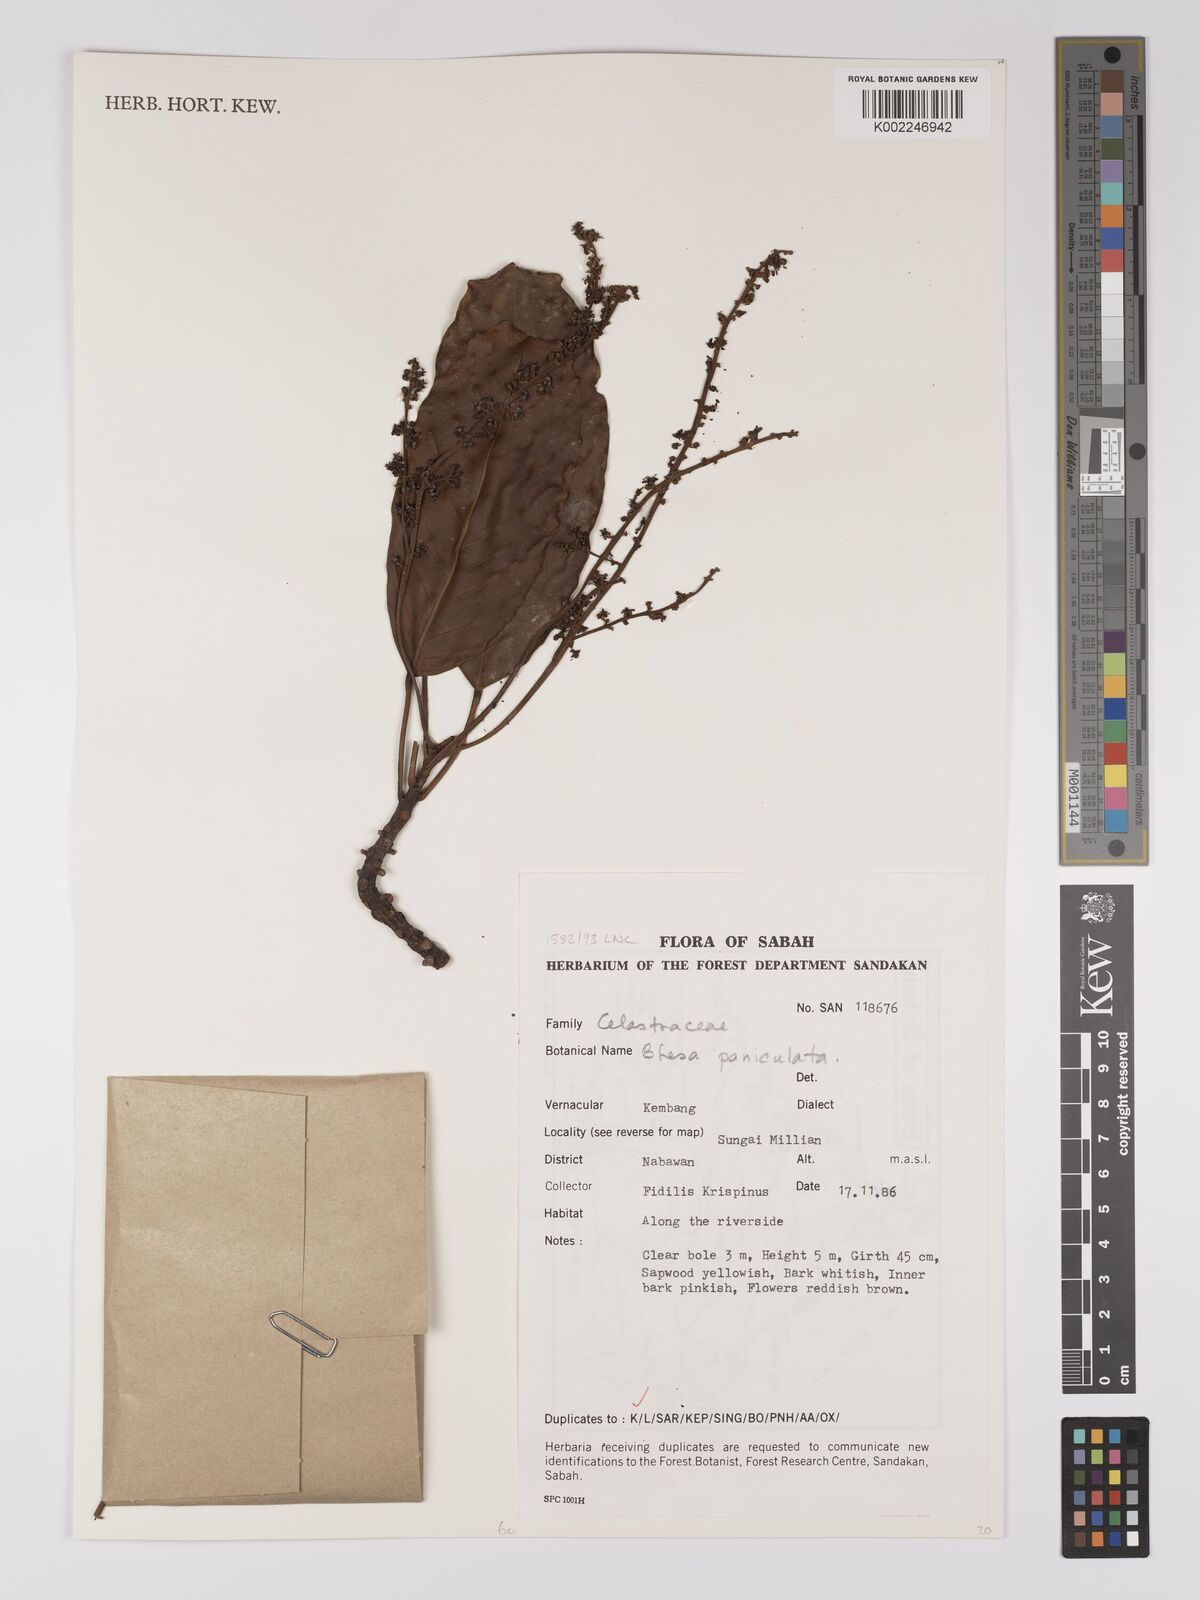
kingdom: Plantae
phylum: Tracheophyta
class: Magnoliopsida
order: Malpighiales
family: Centroplacaceae
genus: Bhesa
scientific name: Bhesa paniculata
